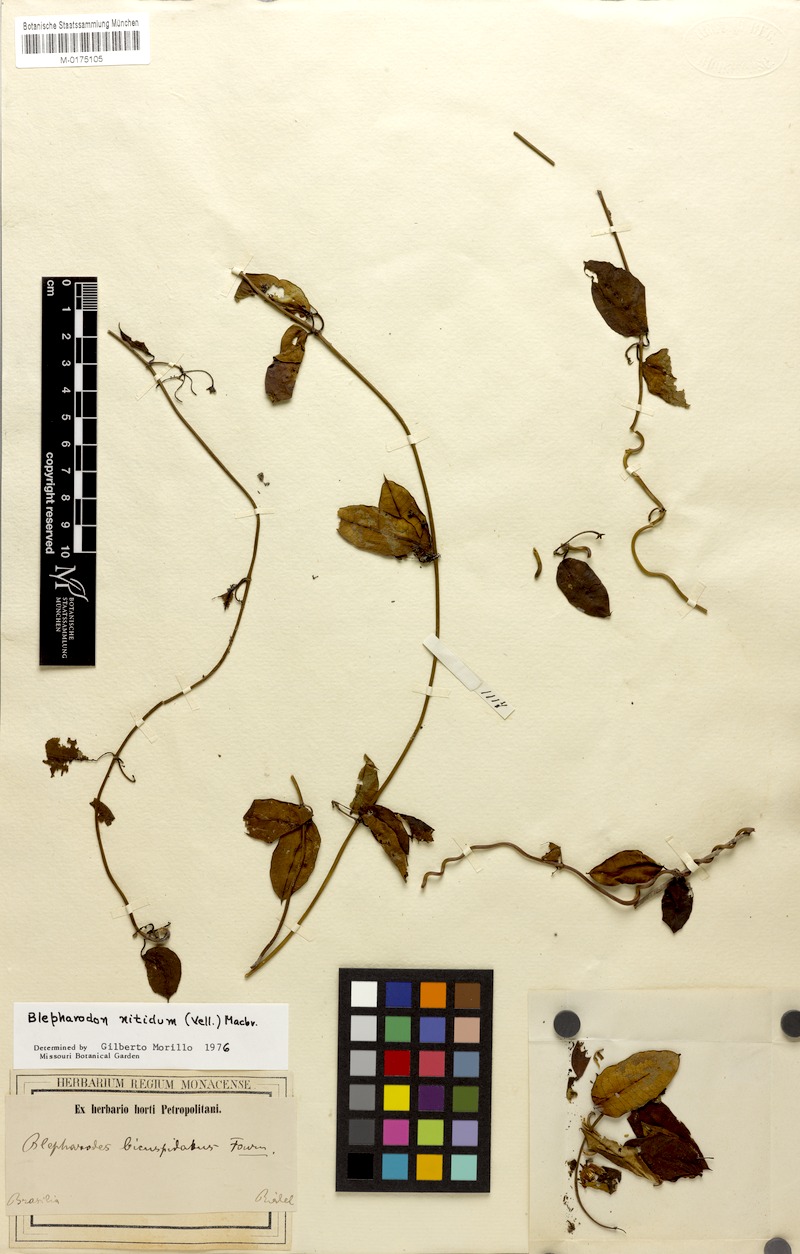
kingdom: Plantae
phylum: Tracheophyta
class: Magnoliopsida
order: Gentianales
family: Apocynaceae
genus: Blepharodon
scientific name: Blepharodon pictum
